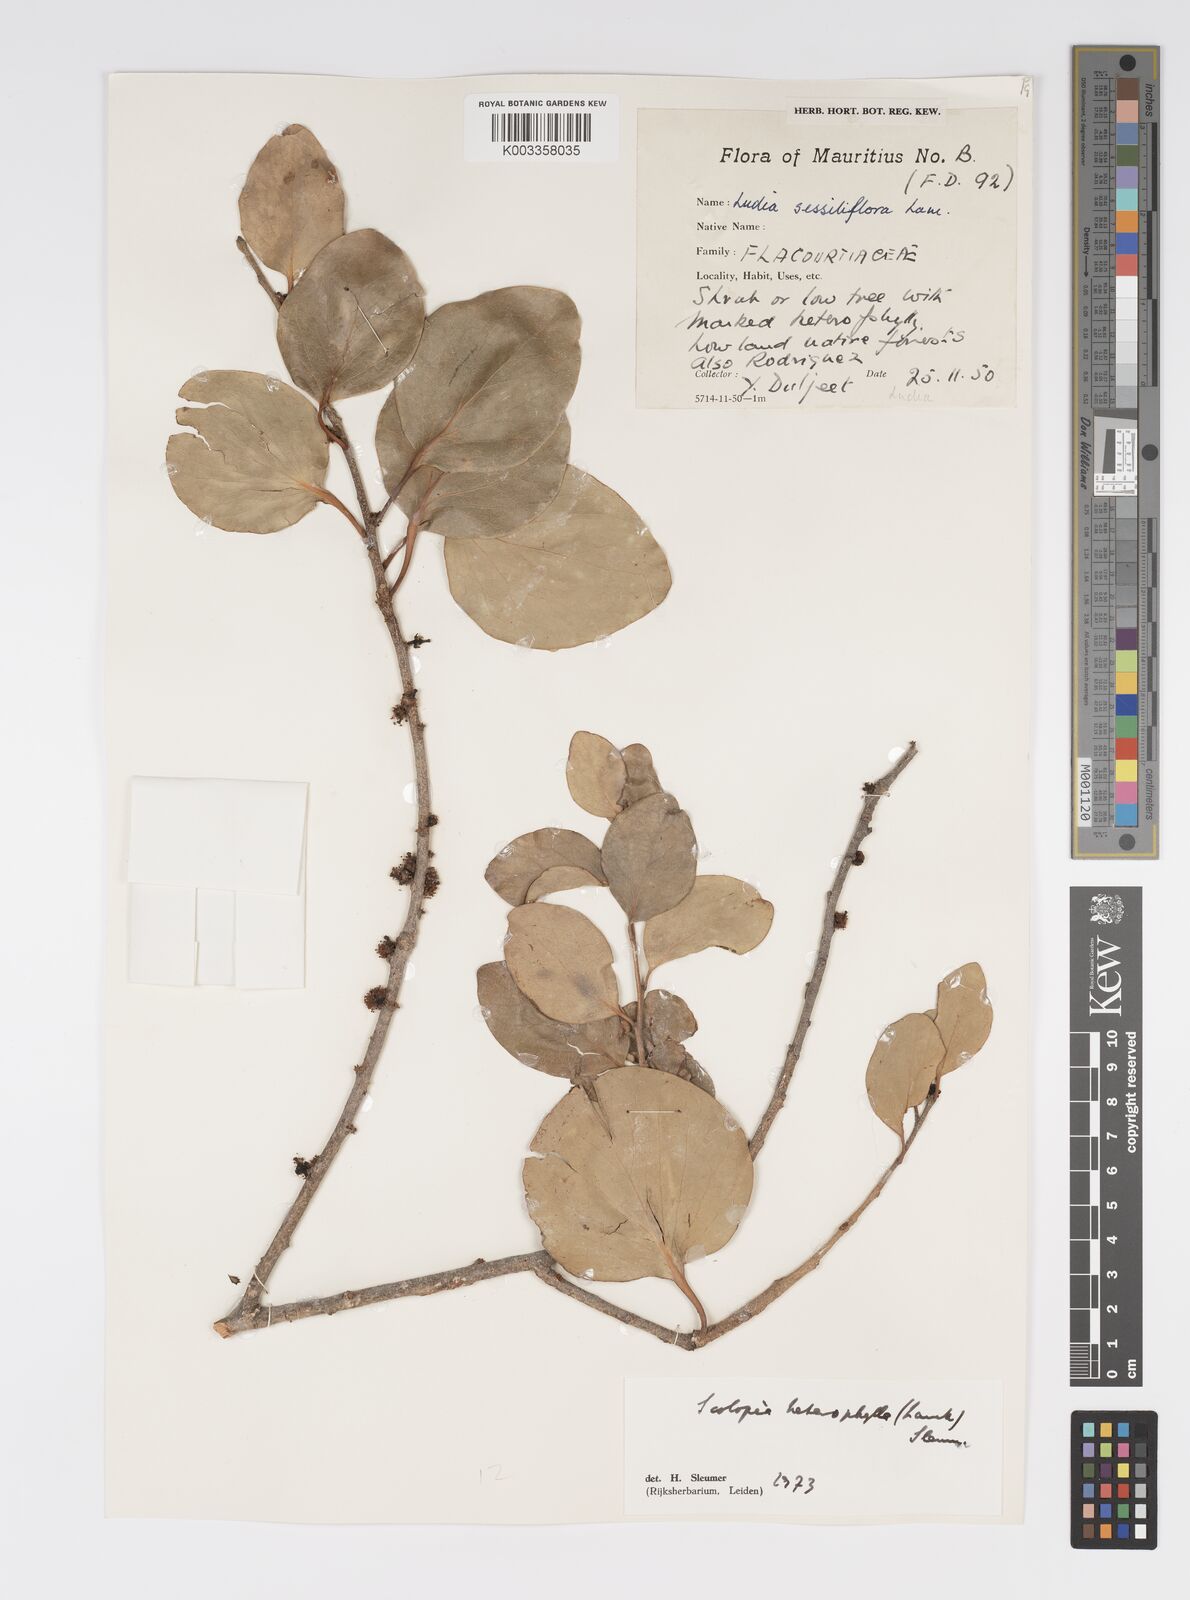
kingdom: Plantae
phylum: Tracheophyta
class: Magnoliopsida
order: Malpighiales
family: Salicaceae
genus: Scolopia
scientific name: Scolopia heterophylla
